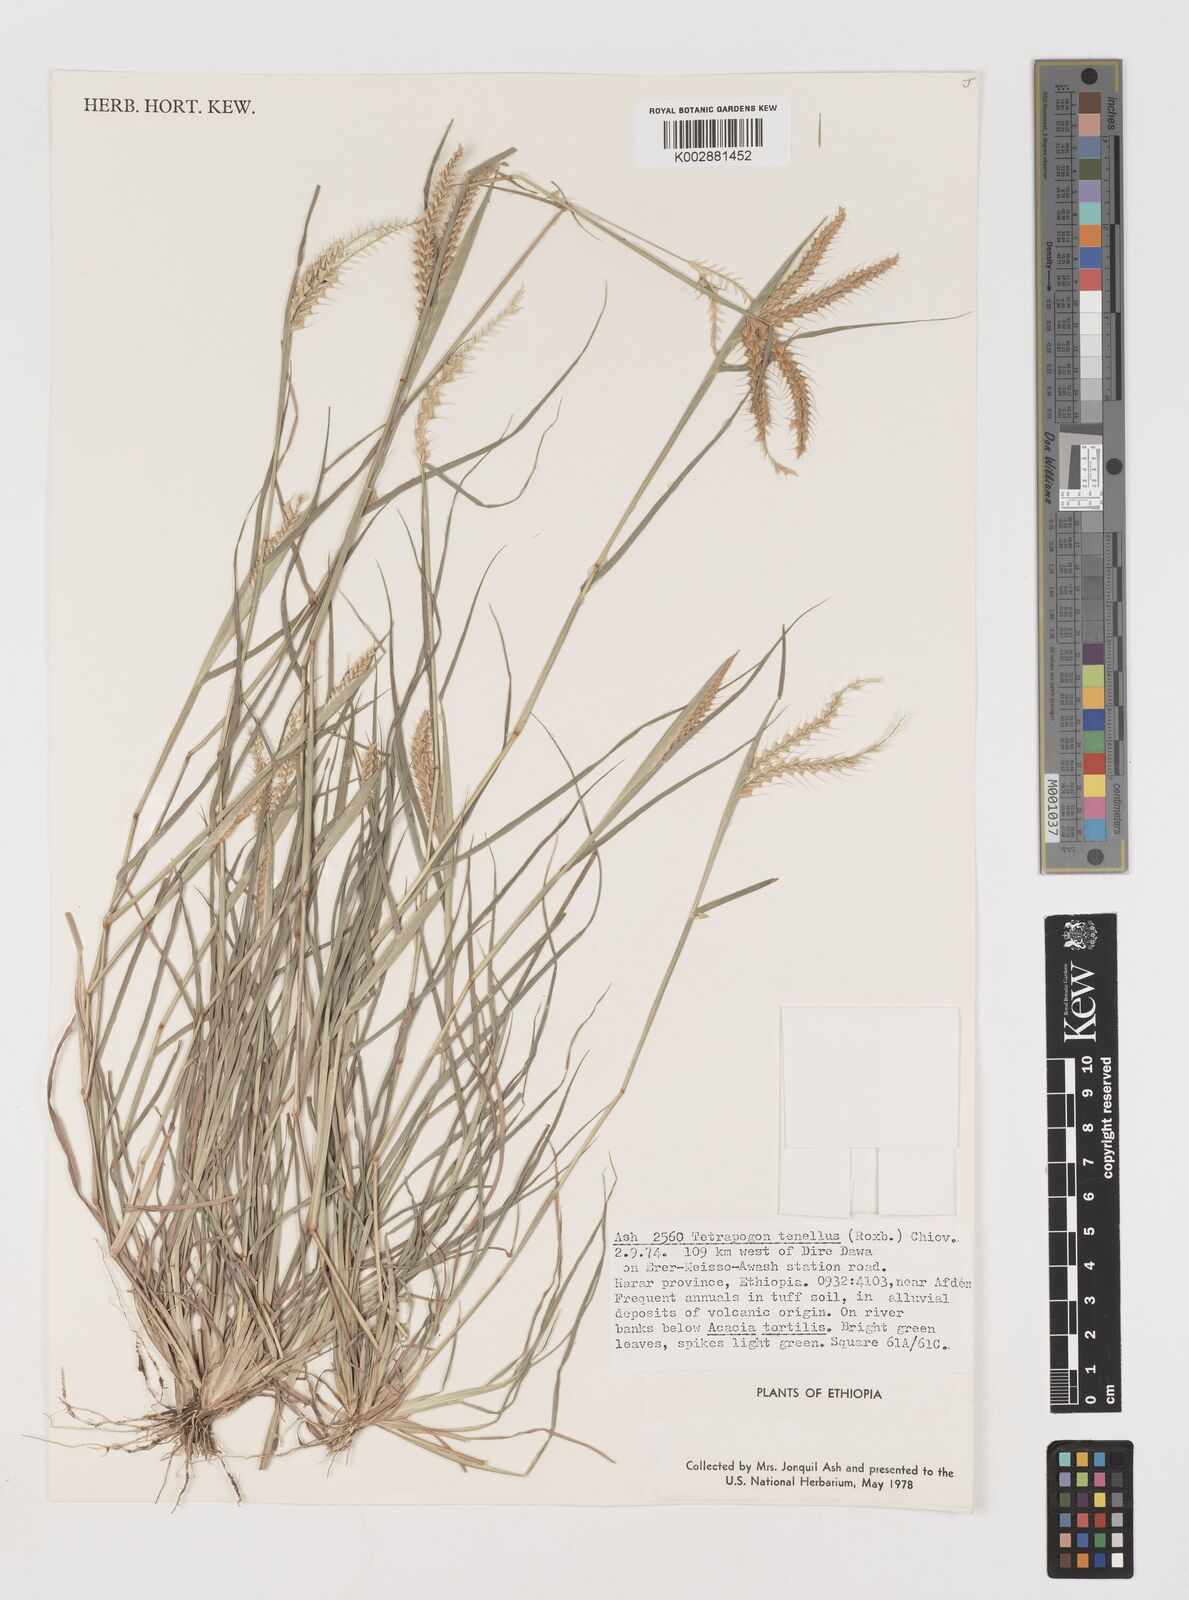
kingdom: Plantae
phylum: Tracheophyta
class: Liliopsida
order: Poales
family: Poaceae
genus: Tetrapogon
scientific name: Tetrapogon tenellus
